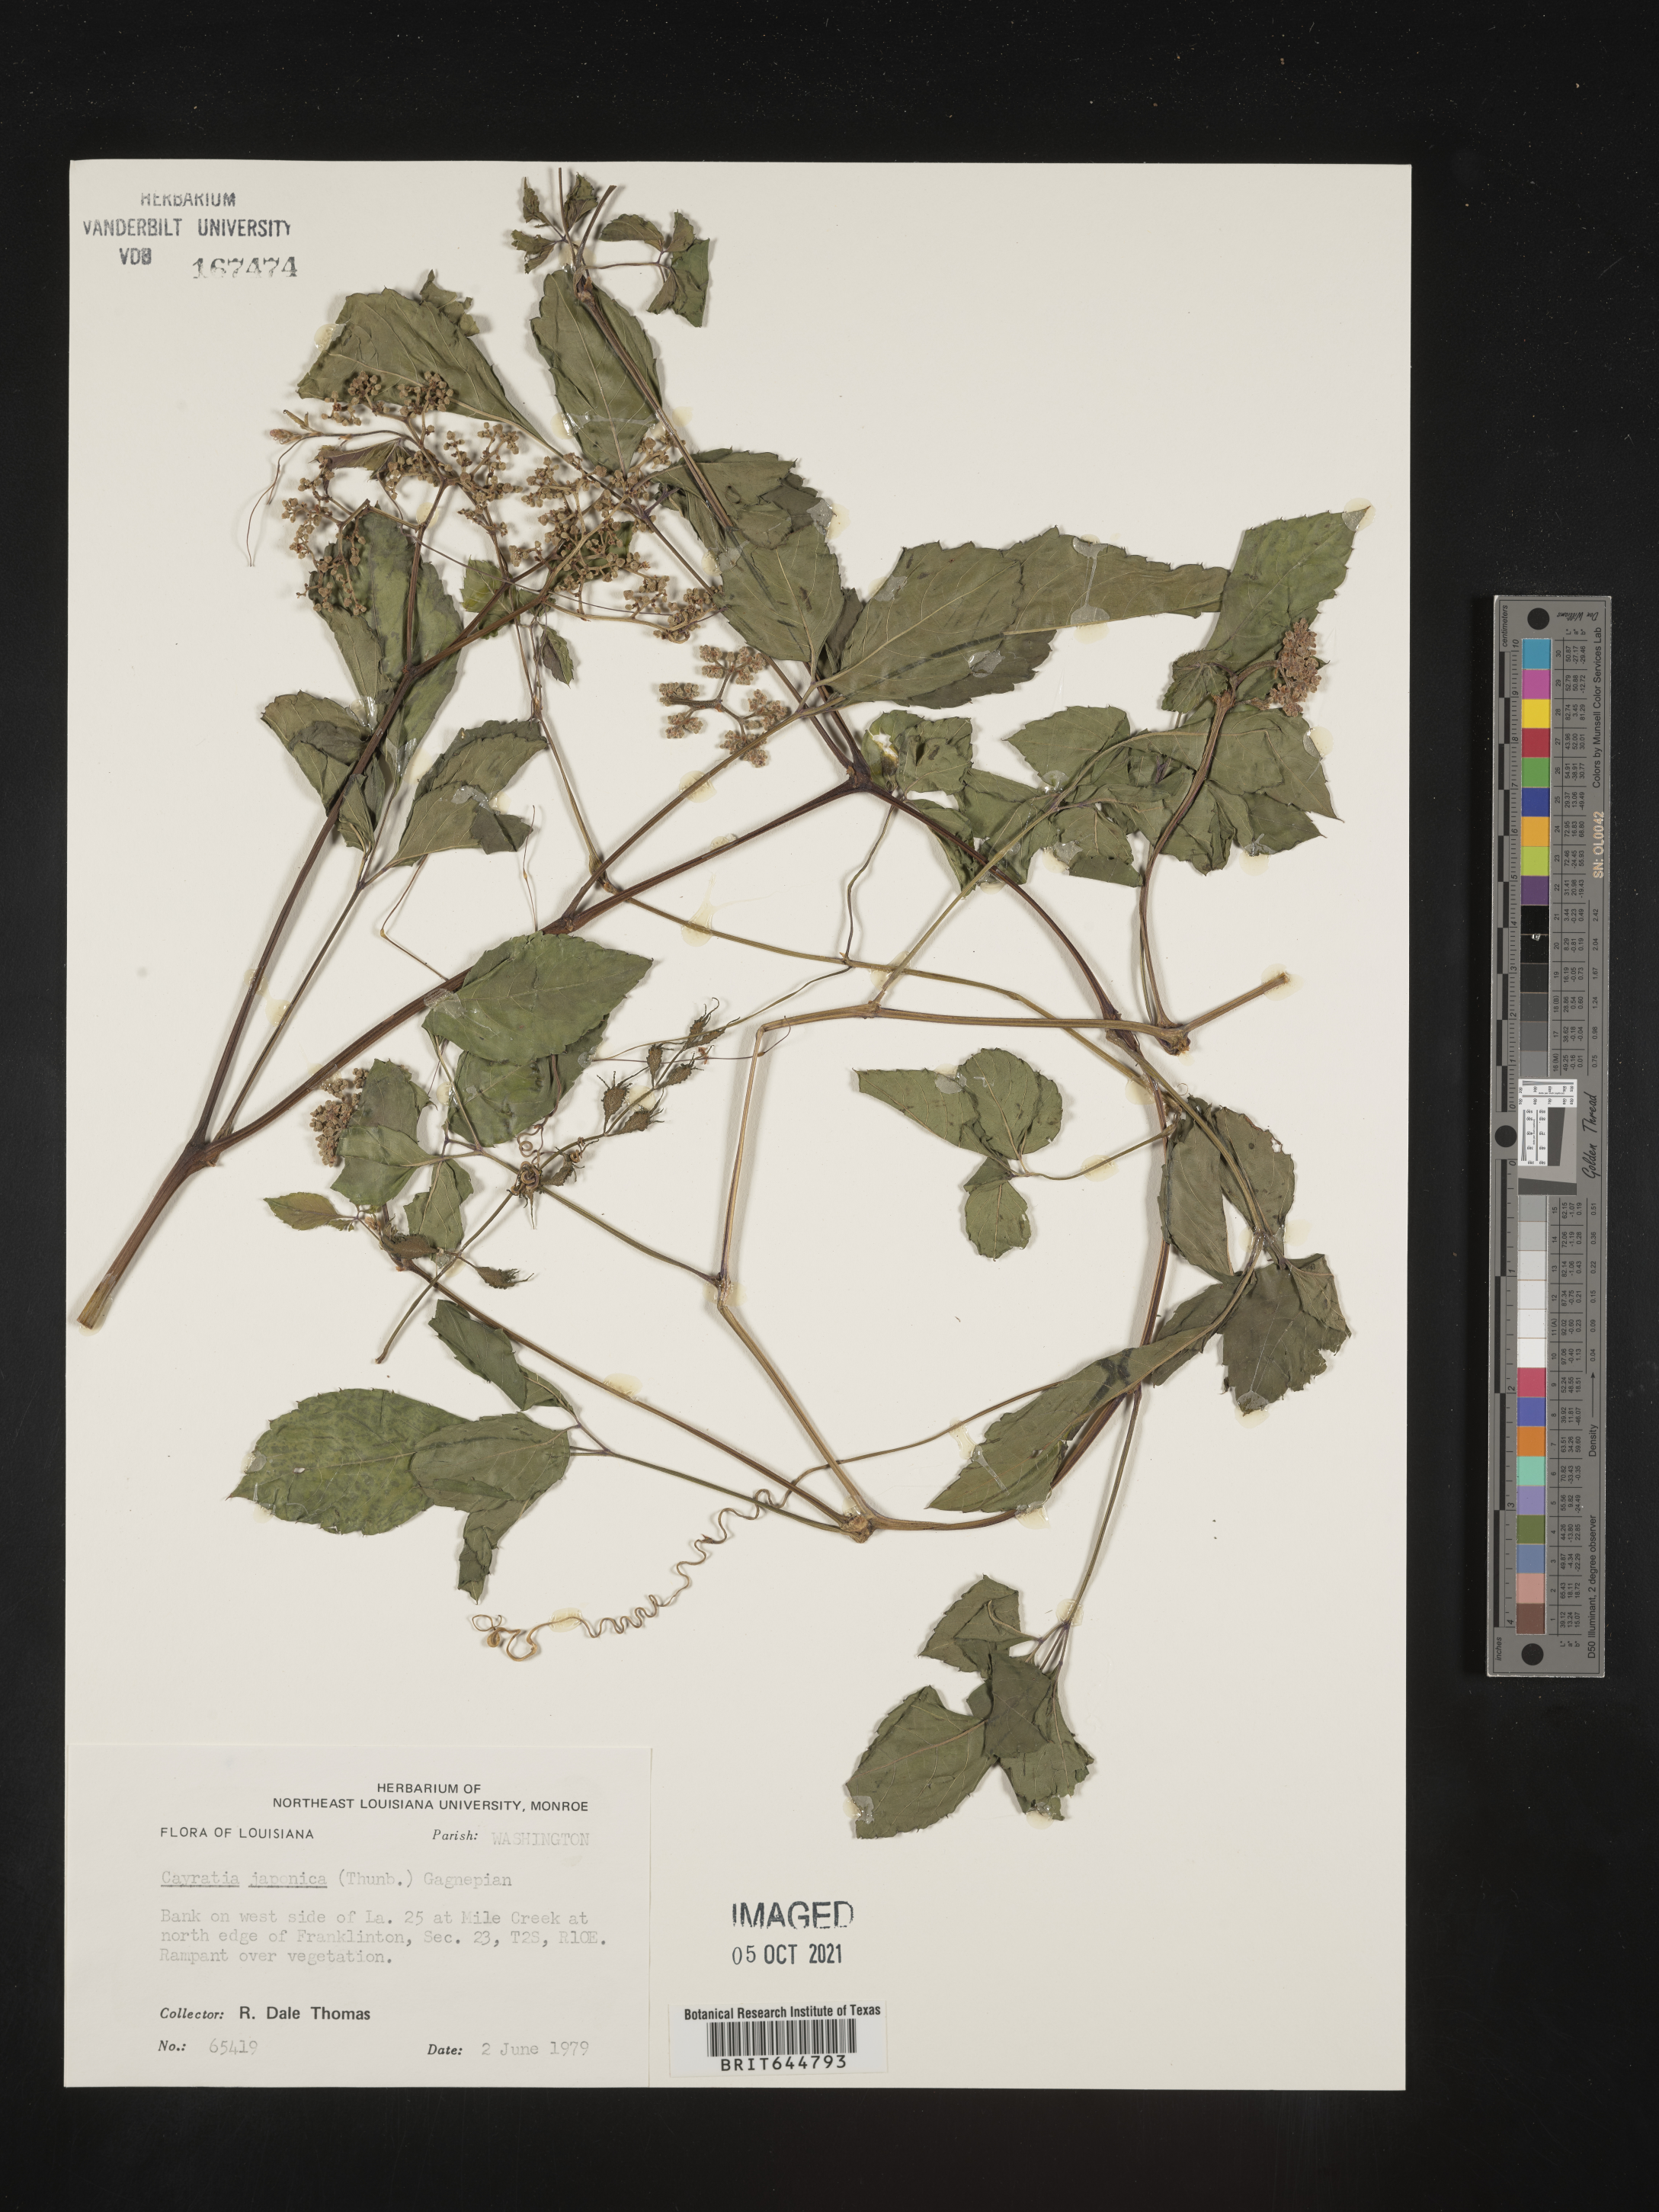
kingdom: Plantae
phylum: Tracheophyta
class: Magnoliopsida
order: Vitales
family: Vitaceae
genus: Causonis
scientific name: Causonis japonica
